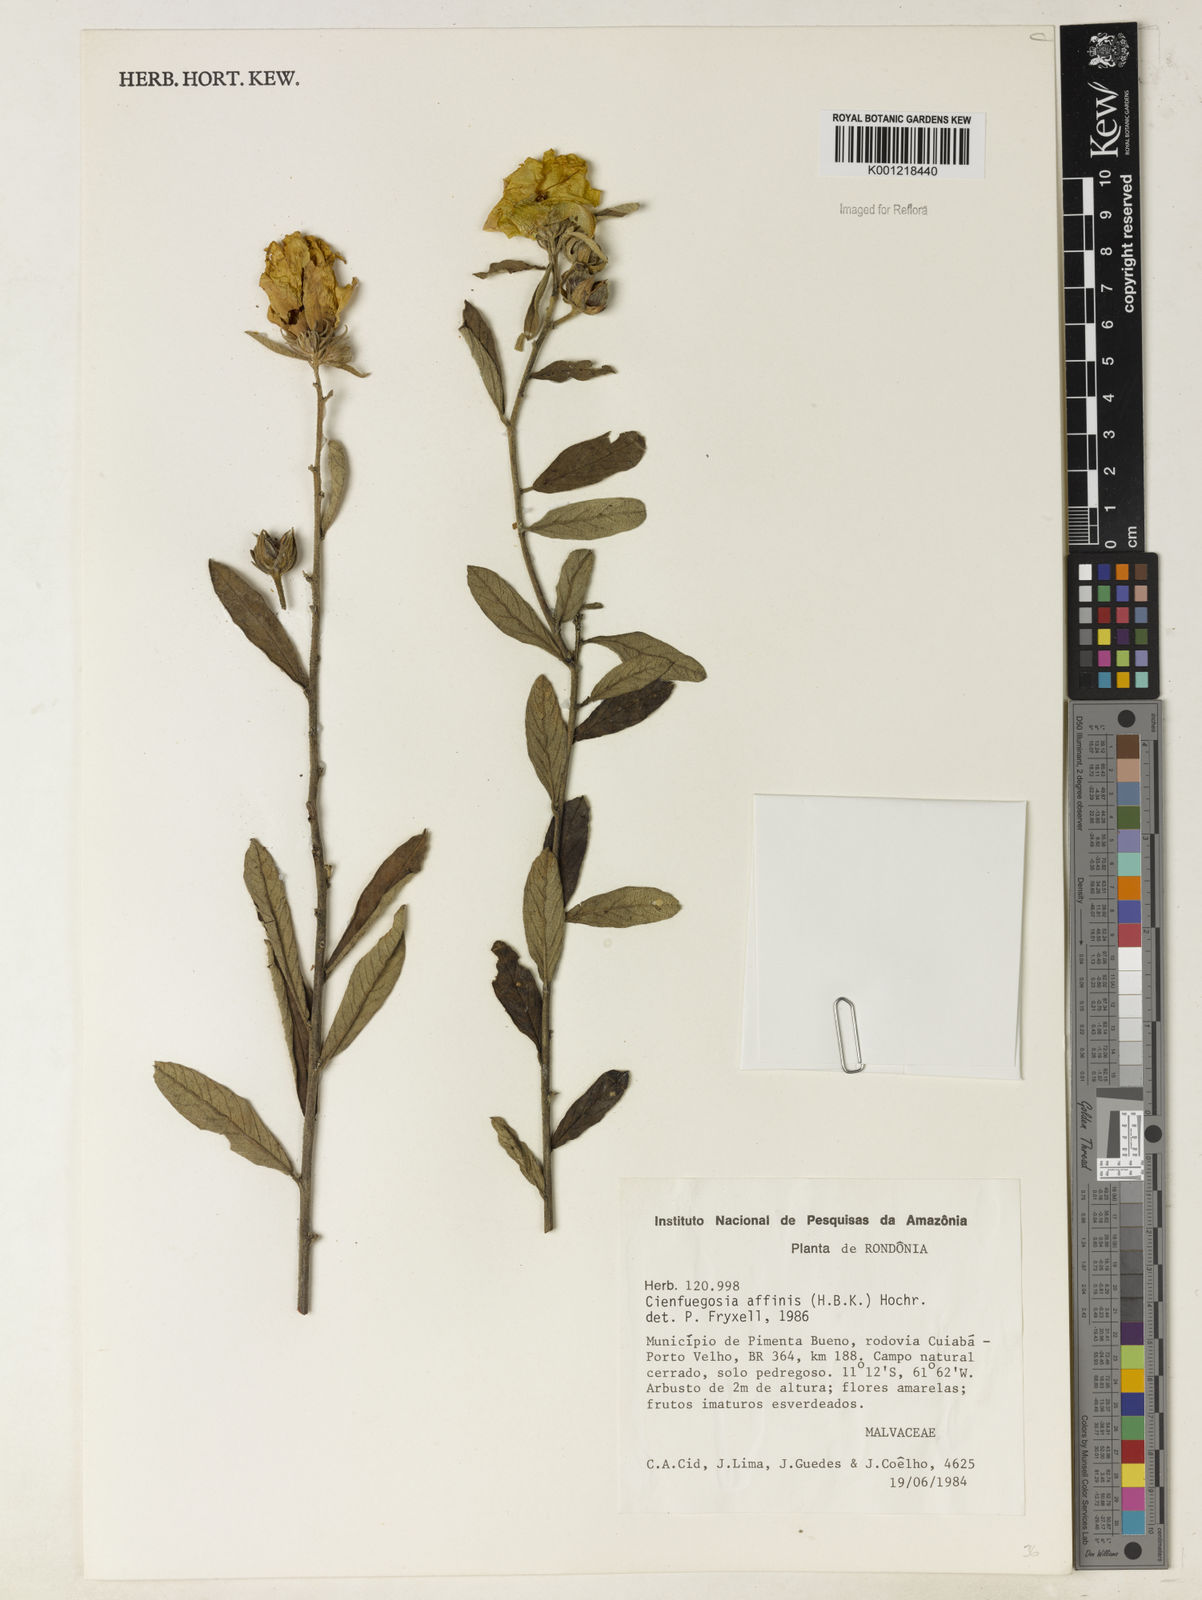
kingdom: Plantae
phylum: Tracheophyta
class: Magnoliopsida
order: Malvales
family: Malvaceae
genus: Cienfuegosia
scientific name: Cienfuegosia affinis
